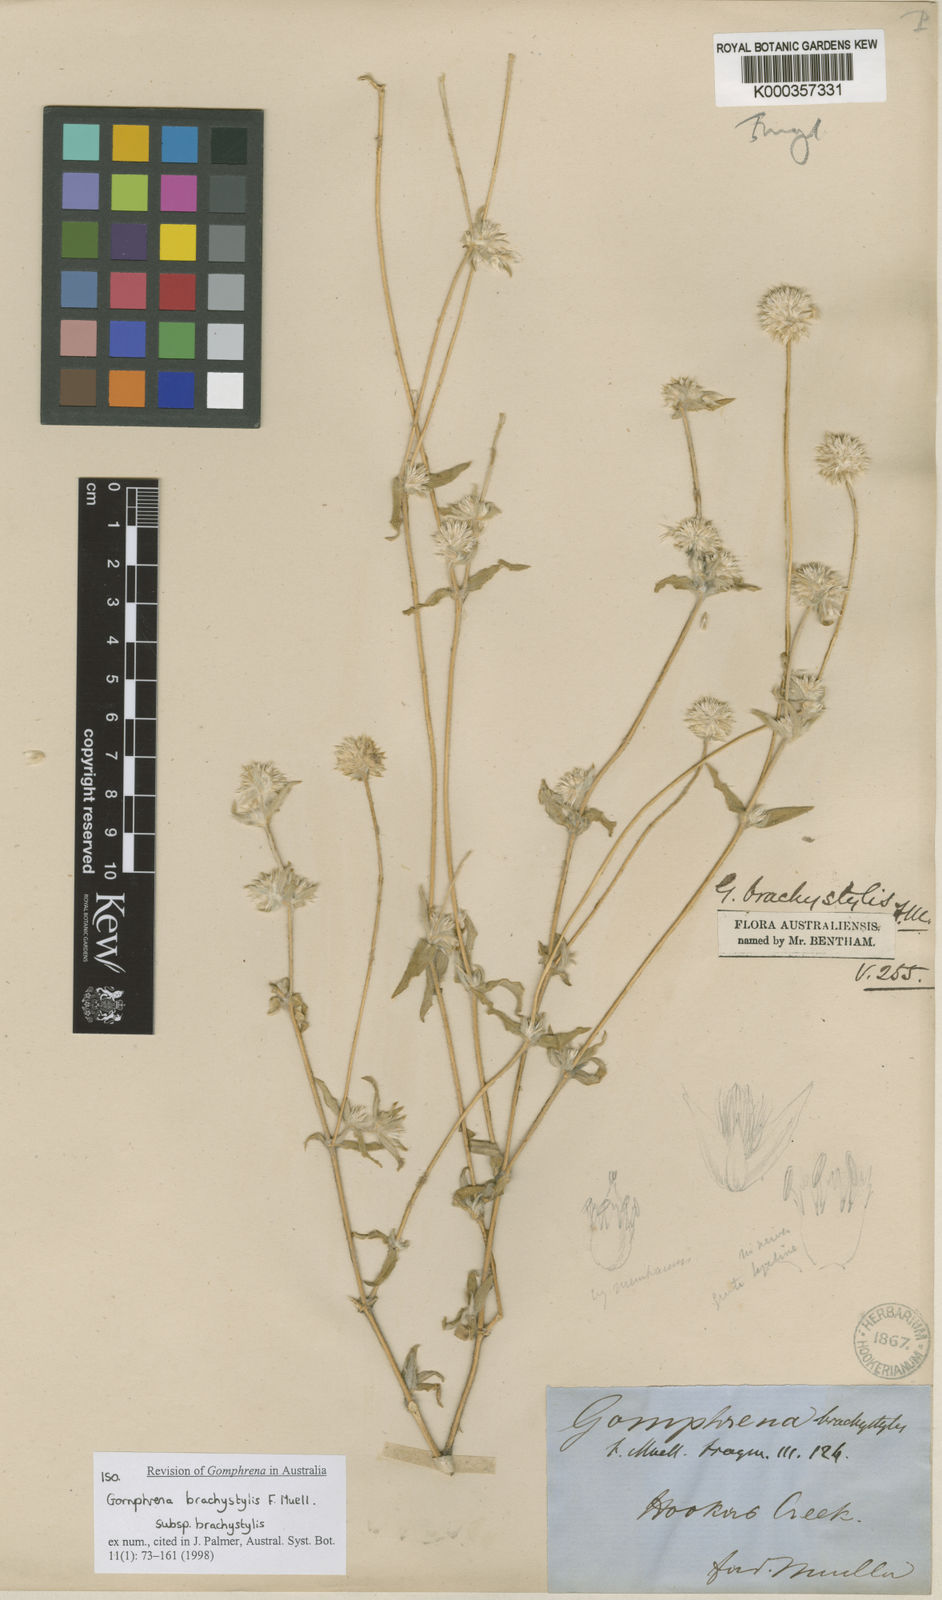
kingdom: Plantae
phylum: Tracheophyta
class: Magnoliopsida
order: Caryophyllales
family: Amaranthaceae
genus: Gomphrena
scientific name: Gomphrena
